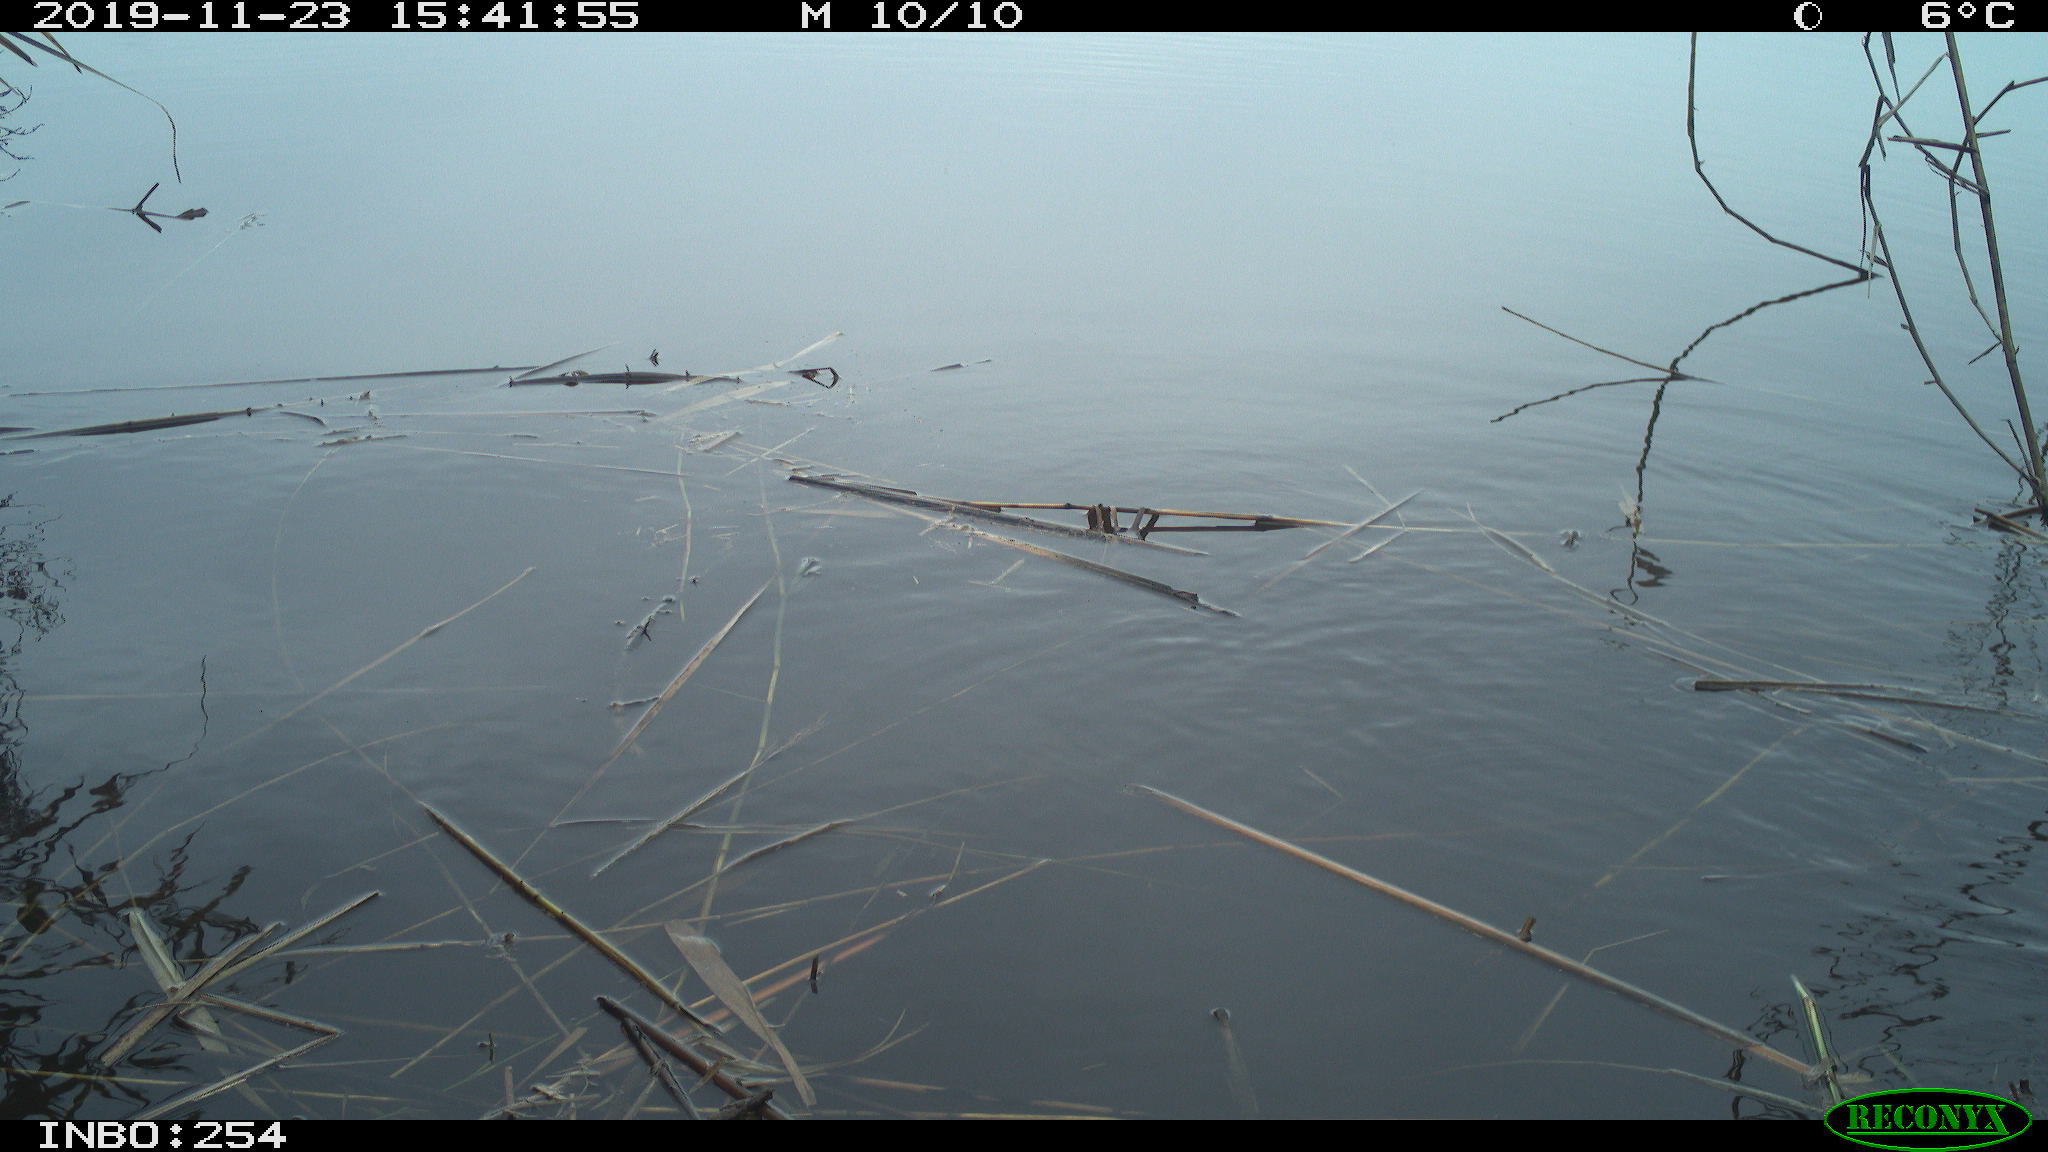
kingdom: Animalia
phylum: Chordata
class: Aves
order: Gruiformes
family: Rallidae
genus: Gallinula
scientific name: Gallinula chloropus
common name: Common moorhen
